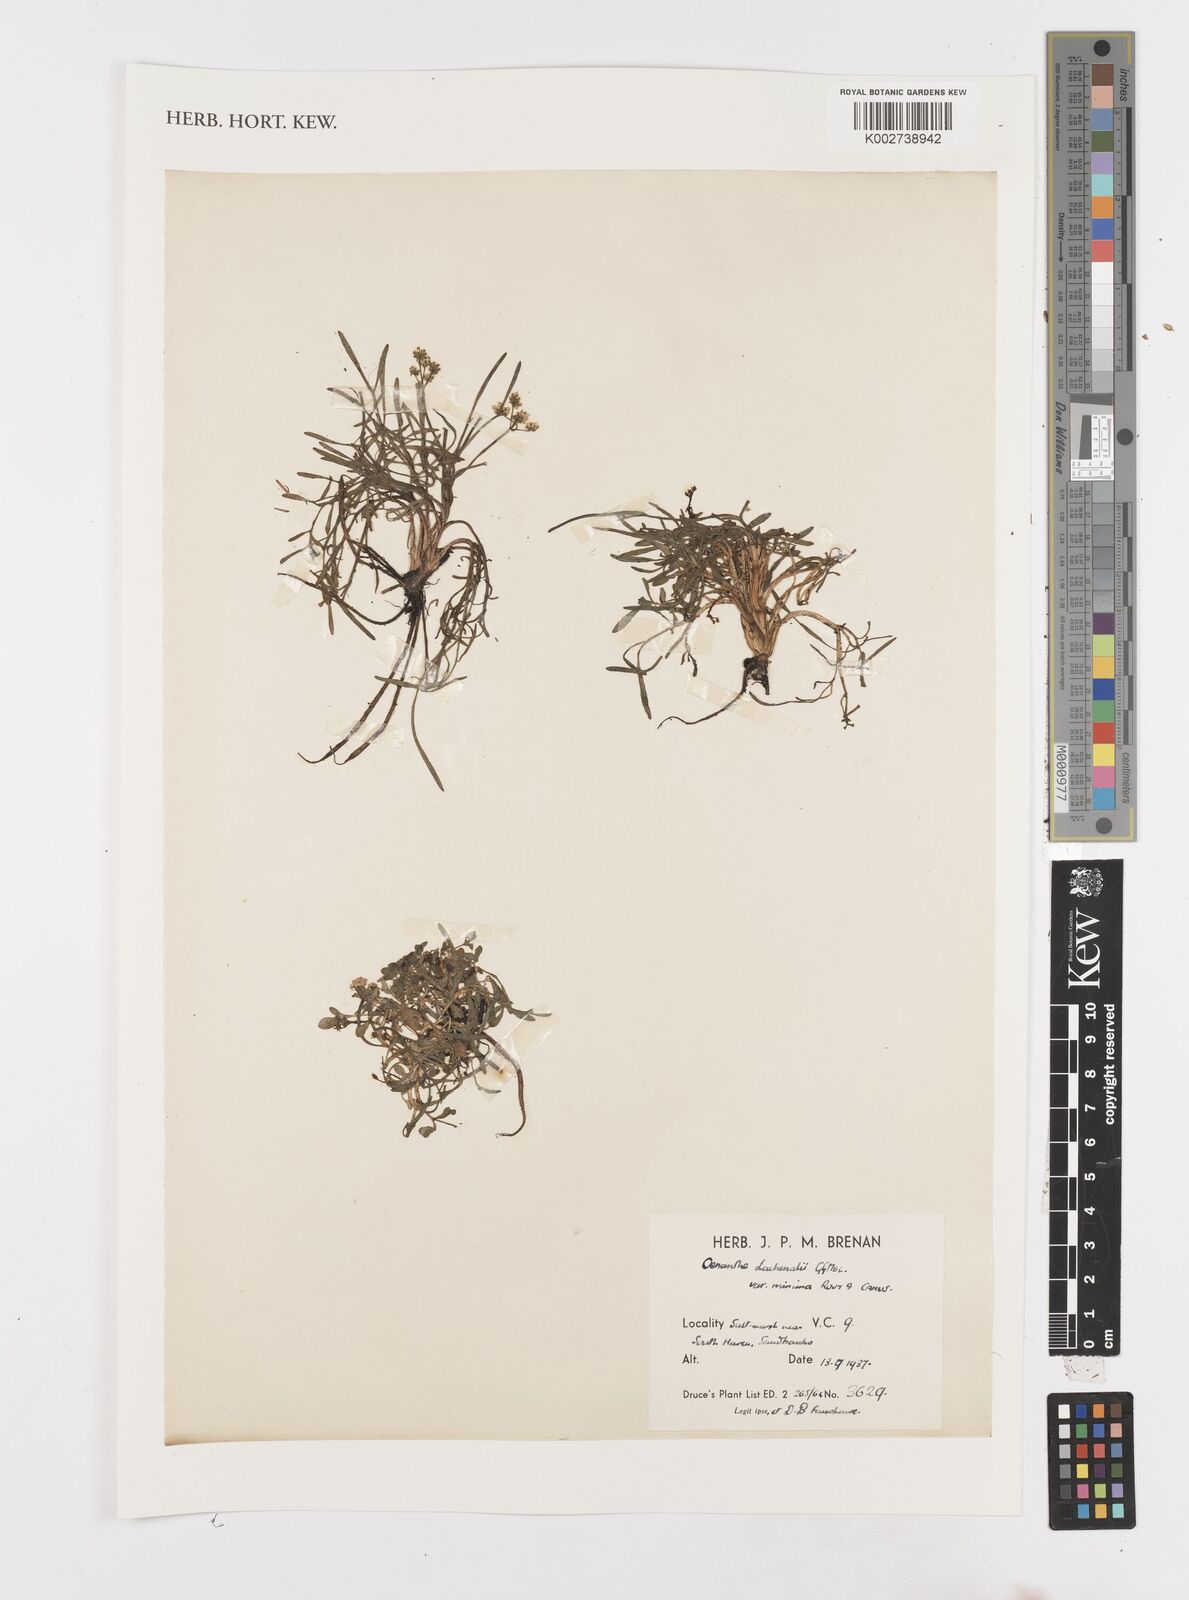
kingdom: Plantae
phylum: Tracheophyta
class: Magnoliopsida
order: Apiales
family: Apiaceae
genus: Oenanthe
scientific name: Oenanthe lachenalii
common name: Parsley water-dropwort
